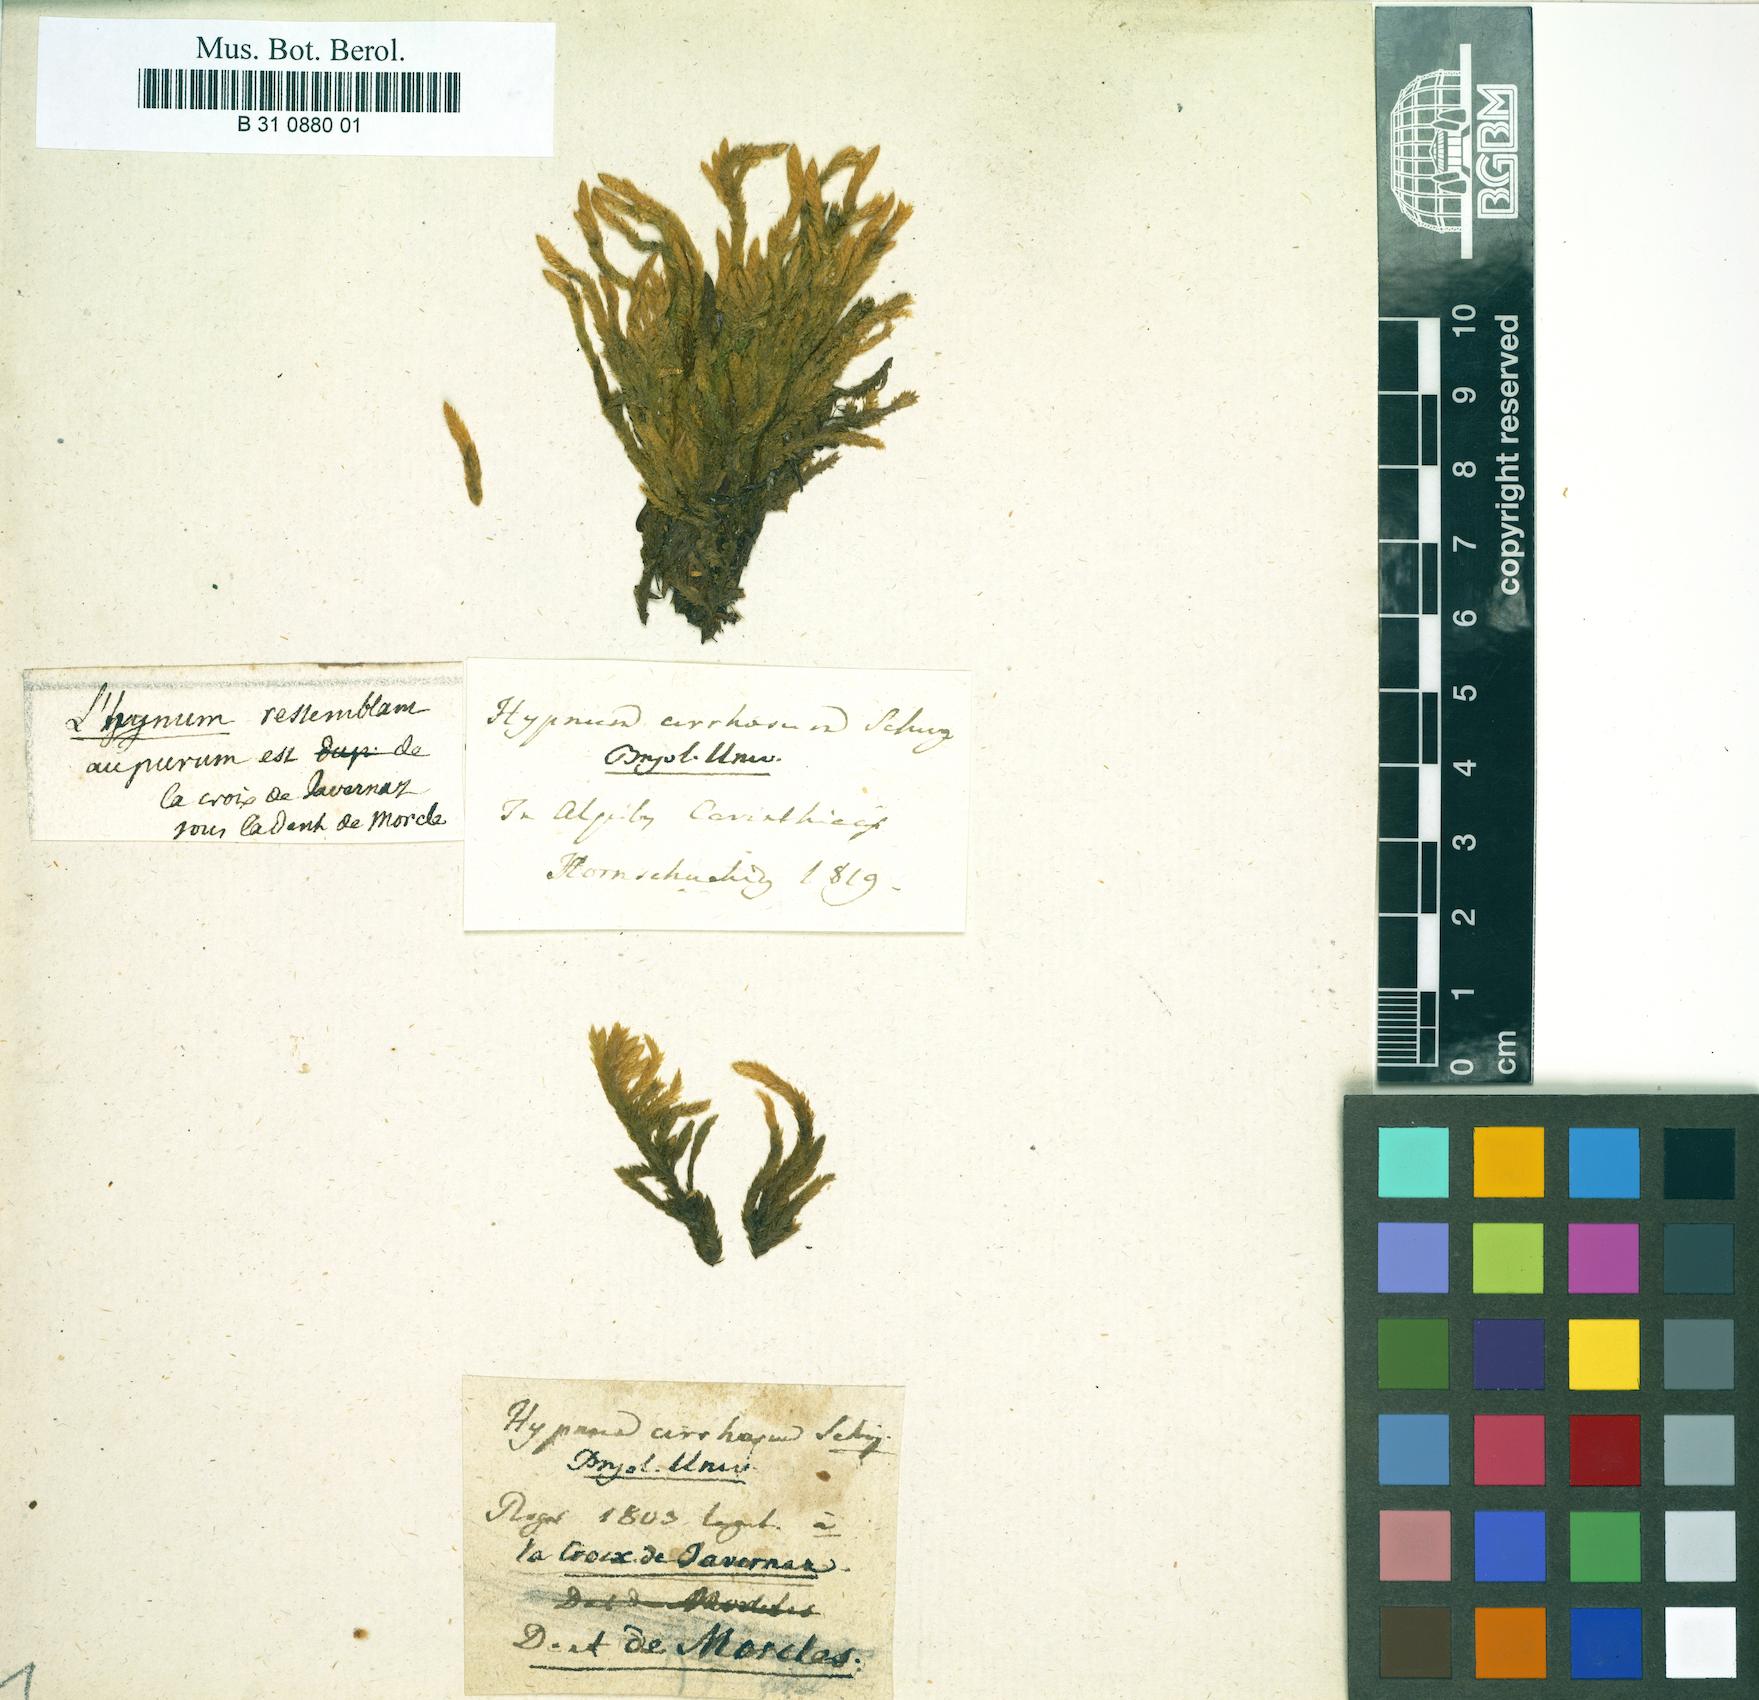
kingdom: Plantae
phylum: Bryophyta
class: Bryopsida
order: Hypnales
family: Hypnaceae
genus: Hypnum
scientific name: Hypnum
